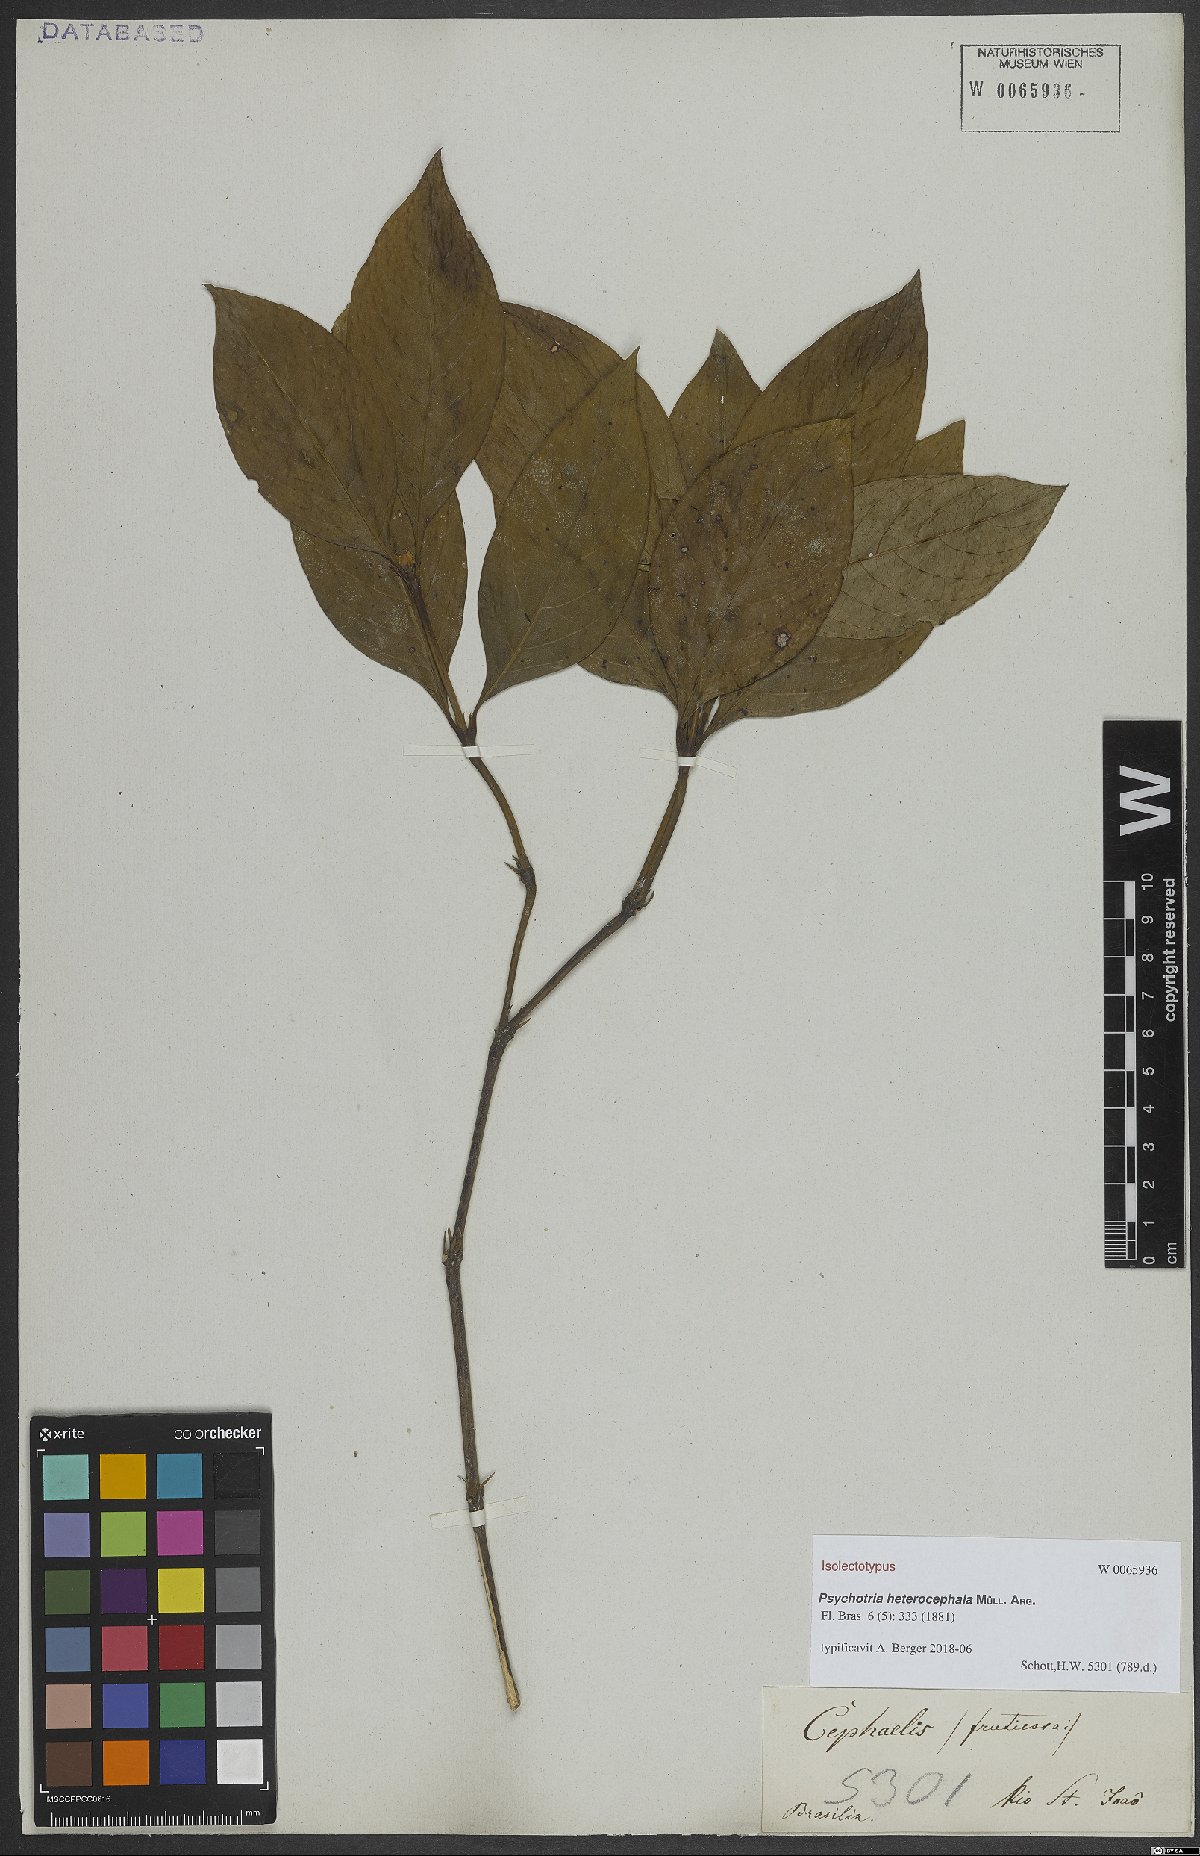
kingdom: Plantae
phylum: Tracheophyta
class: Magnoliopsida
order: Gentianales
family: Rubiaceae
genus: Palicourea
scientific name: Palicourea hoffmannseggiana
